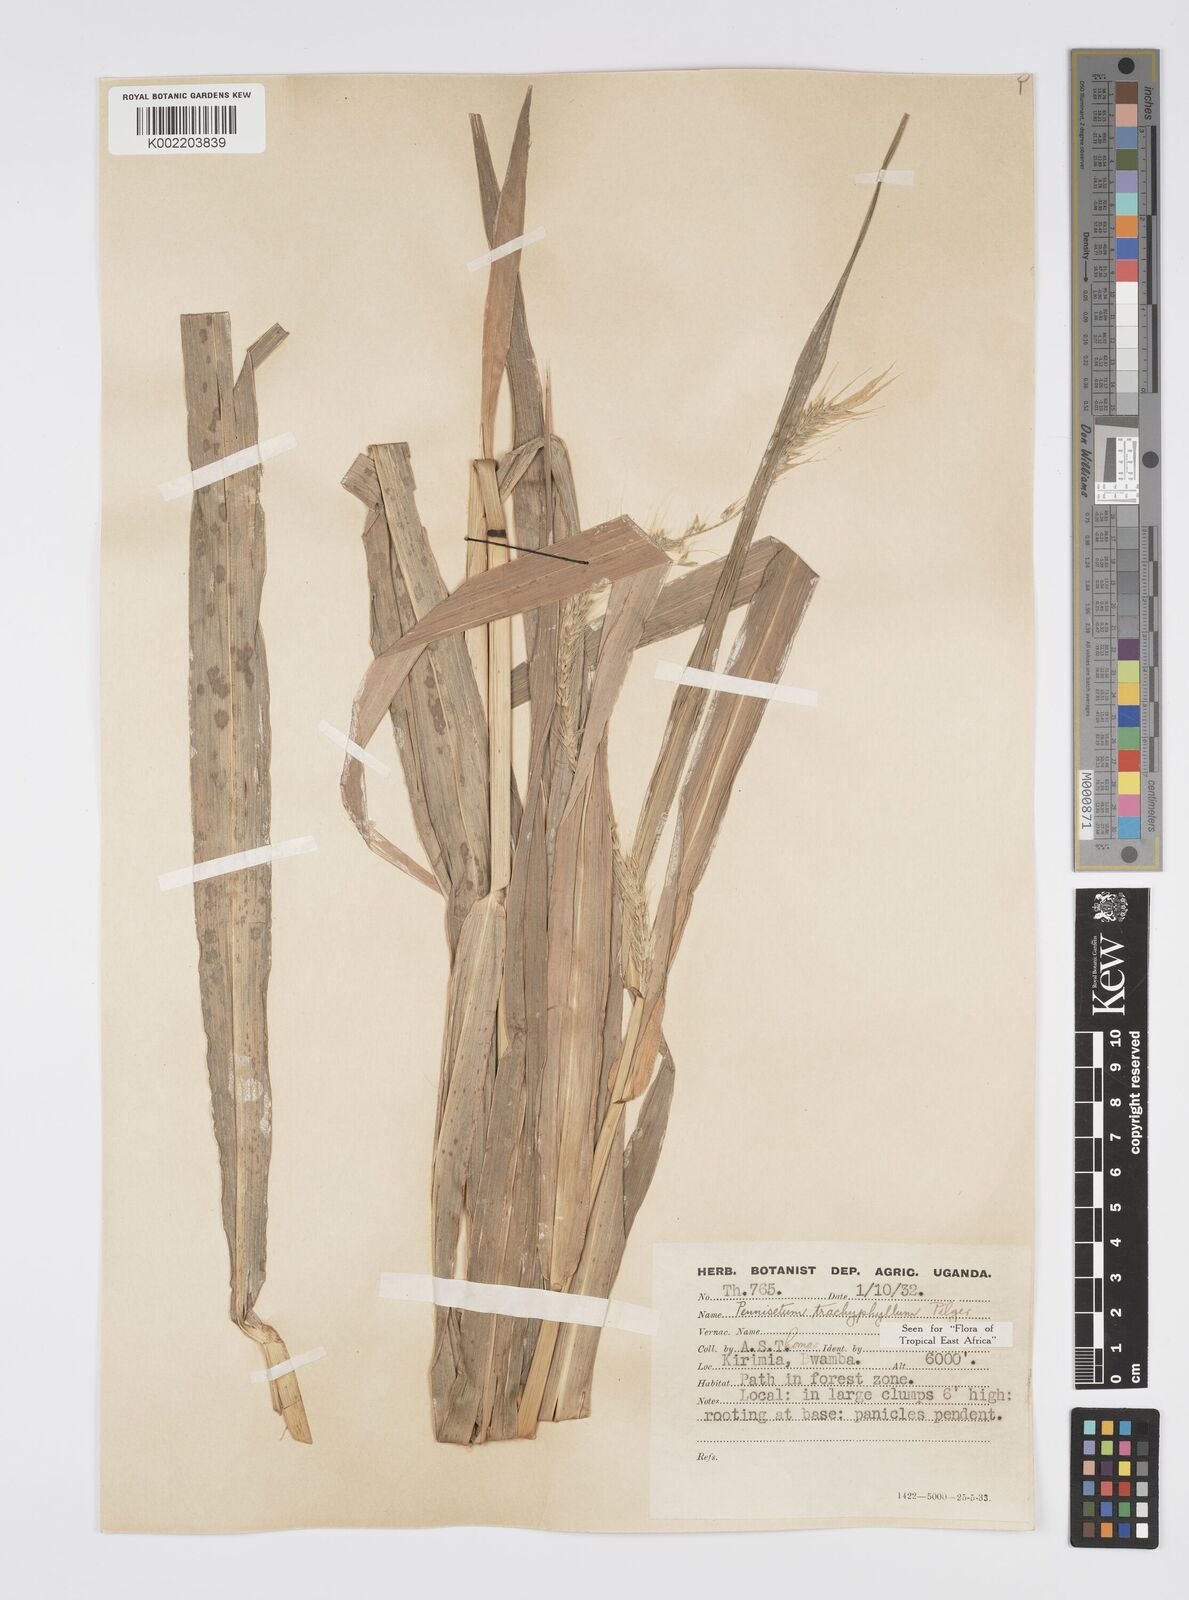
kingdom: Plantae
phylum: Tracheophyta
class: Liliopsida
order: Poales
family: Poaceae
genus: Cenchrus
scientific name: Cenchrus trachyphyllus
